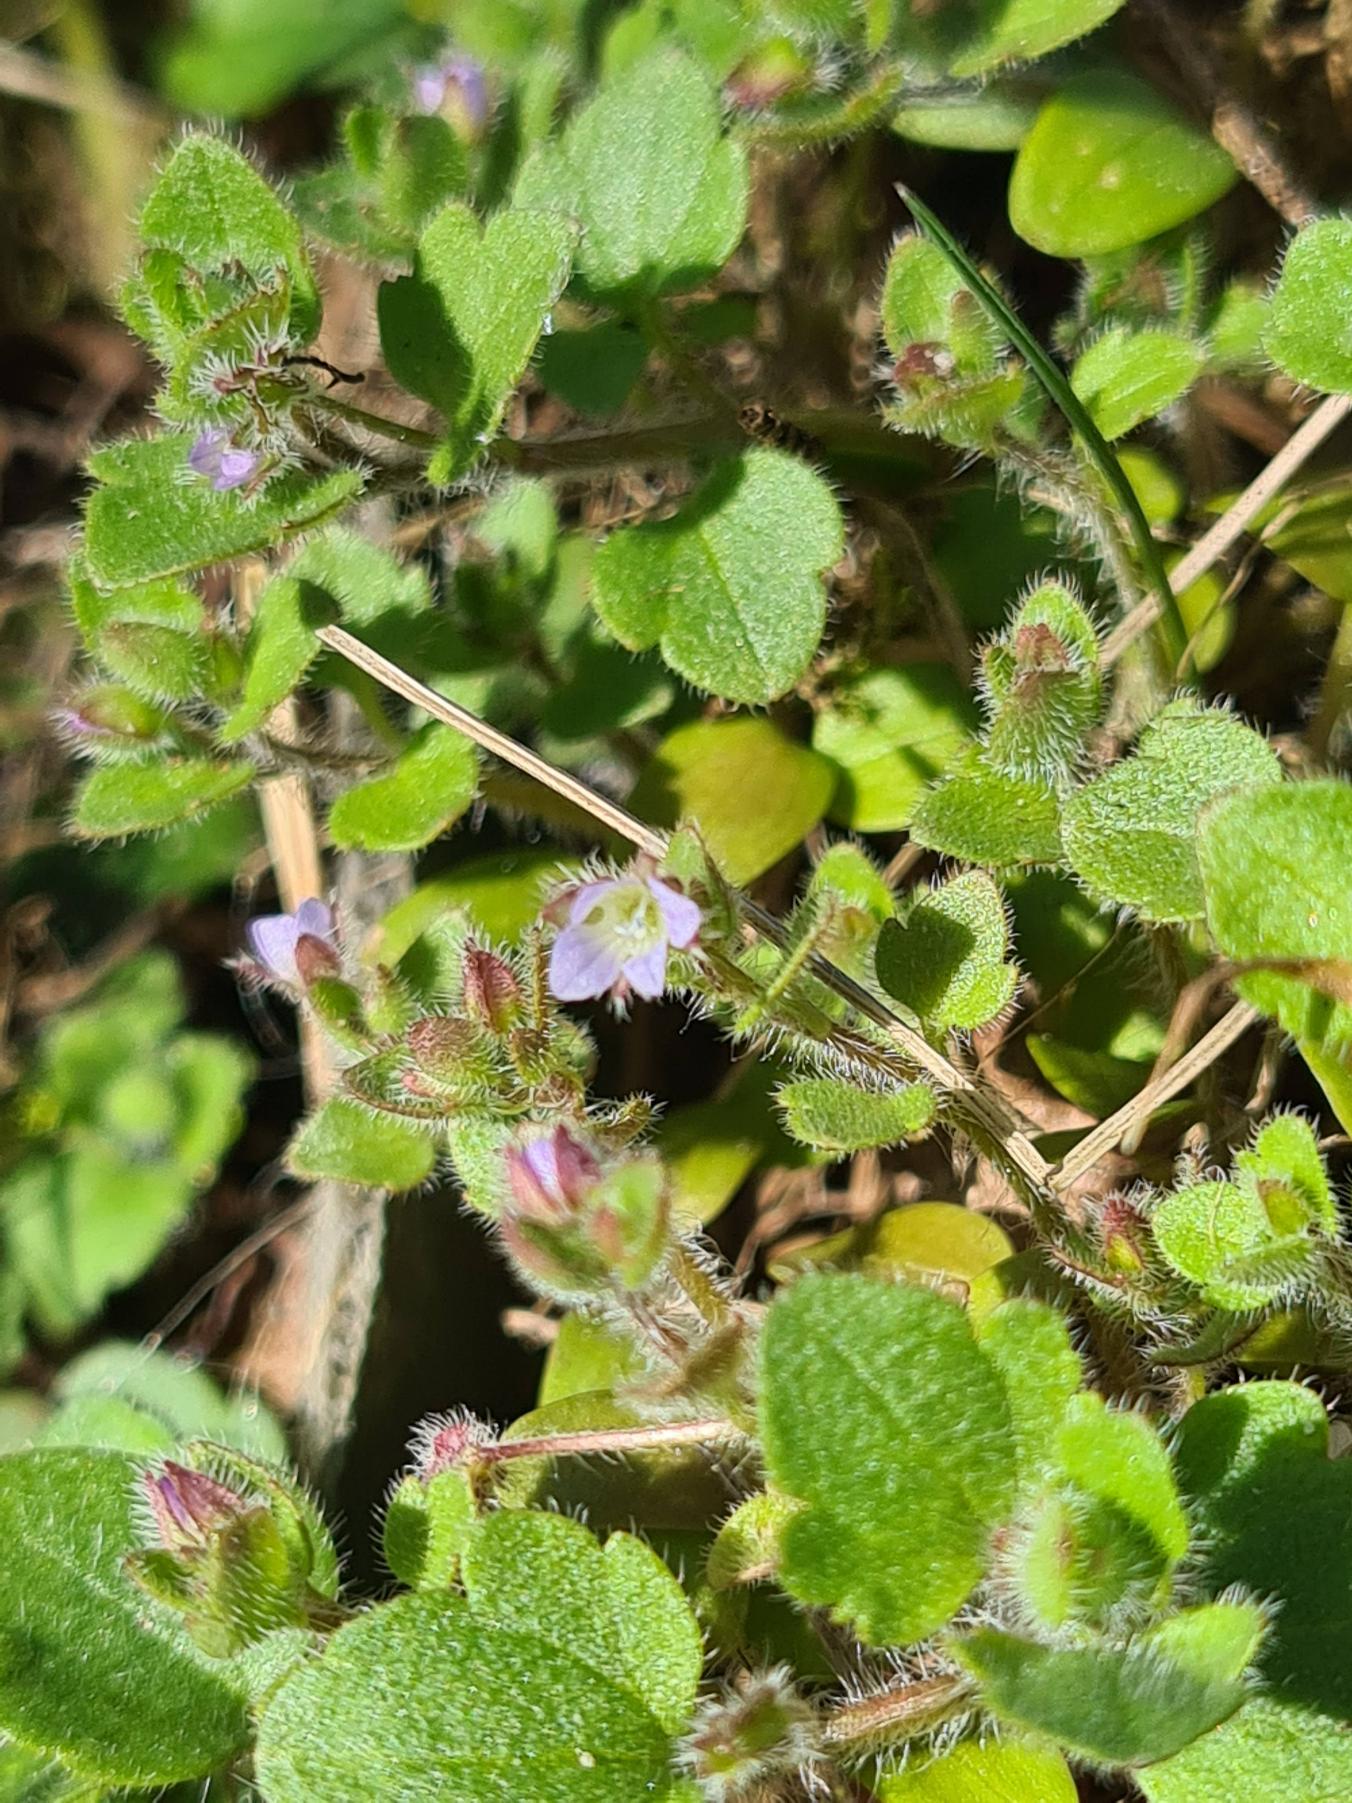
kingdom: Plantae
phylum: Tracheophyta
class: Magnoliopsida
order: Lamiales
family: Plantaginaceae
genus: Veronica
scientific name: Veronica sublobata
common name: Krat-ærenpris
